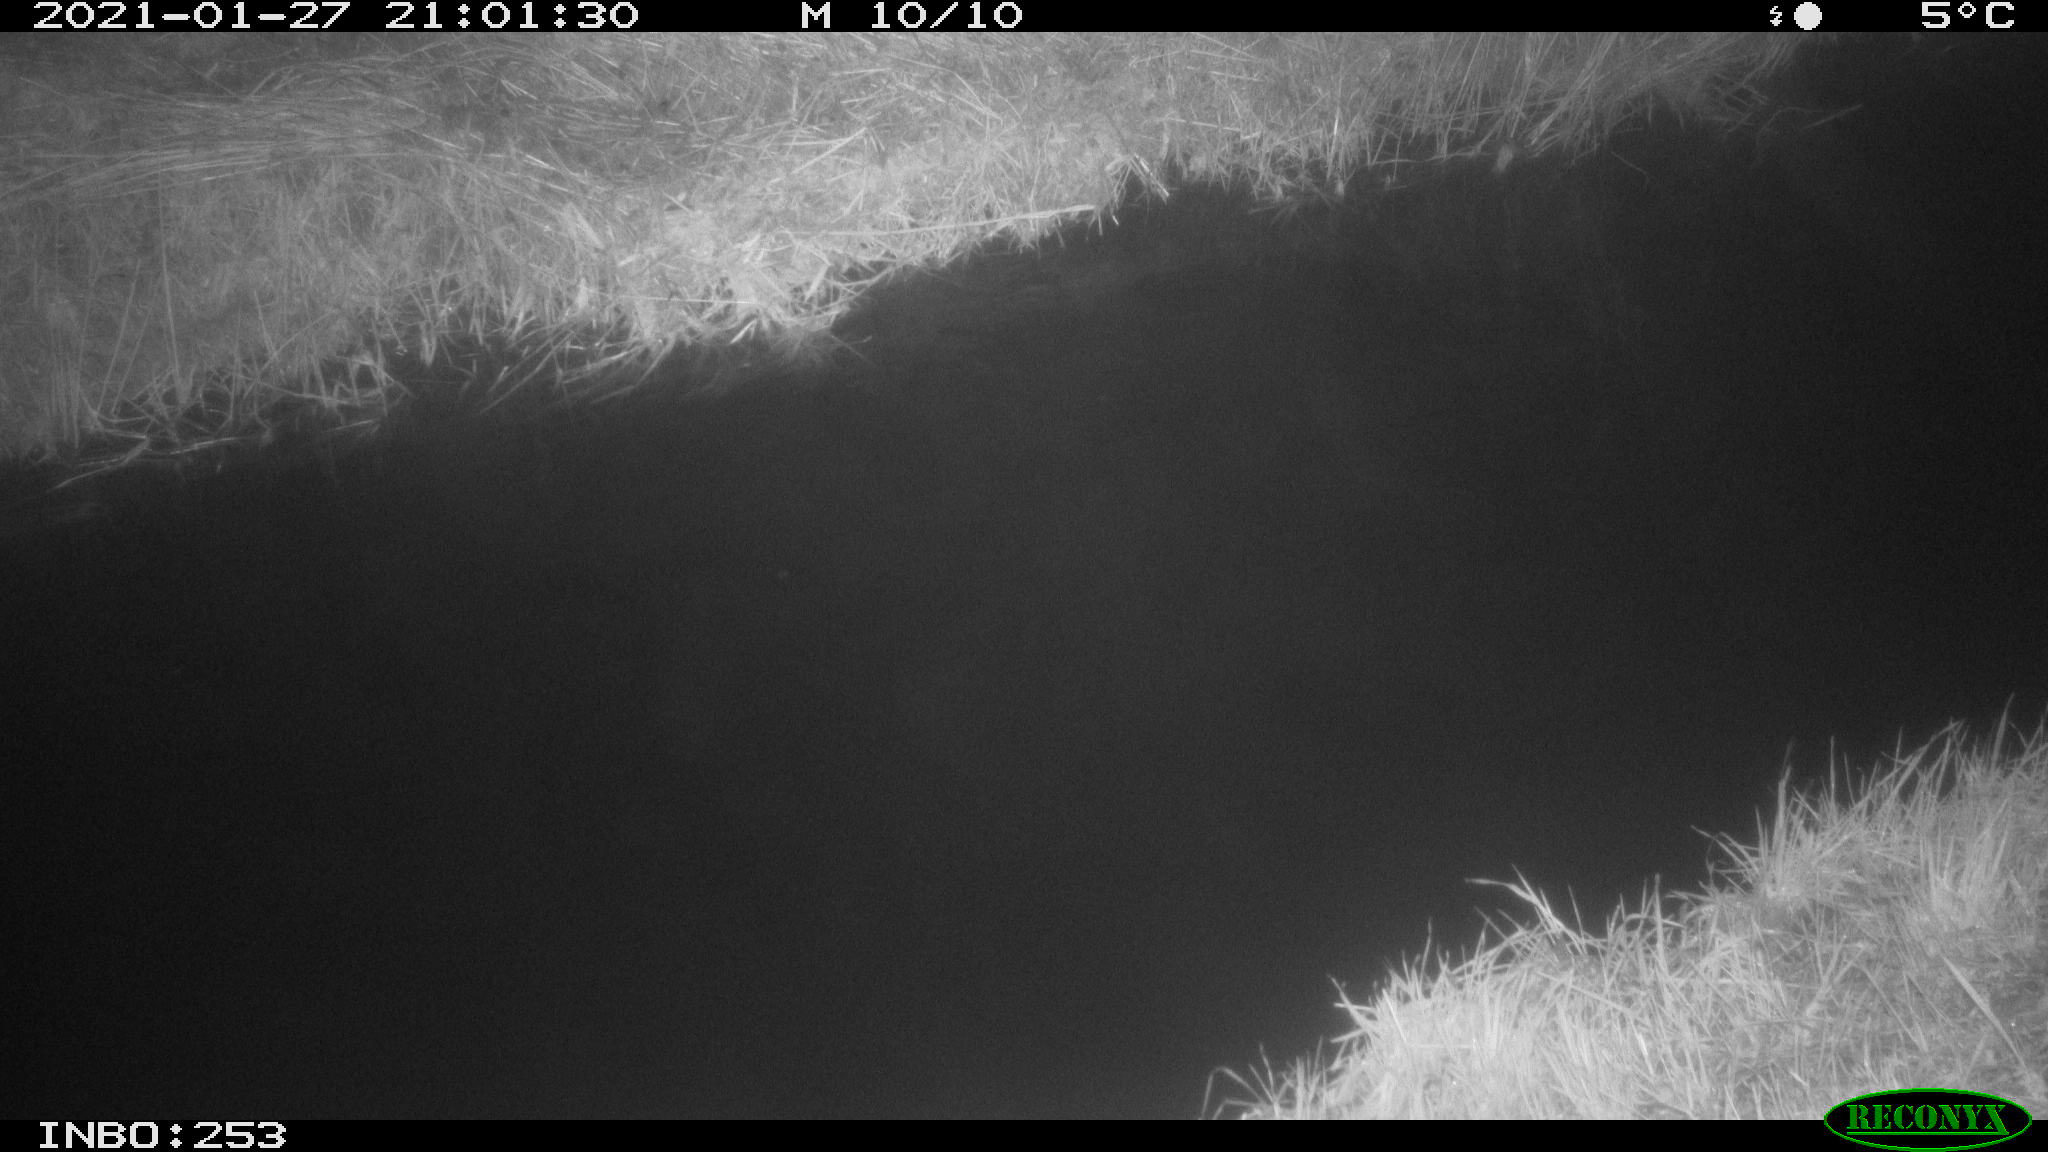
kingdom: Animalia
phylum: Chordata
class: Aves
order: Anseriformes
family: Anatidae
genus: Anas
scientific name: Anas platyrhynchos
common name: Mallard
